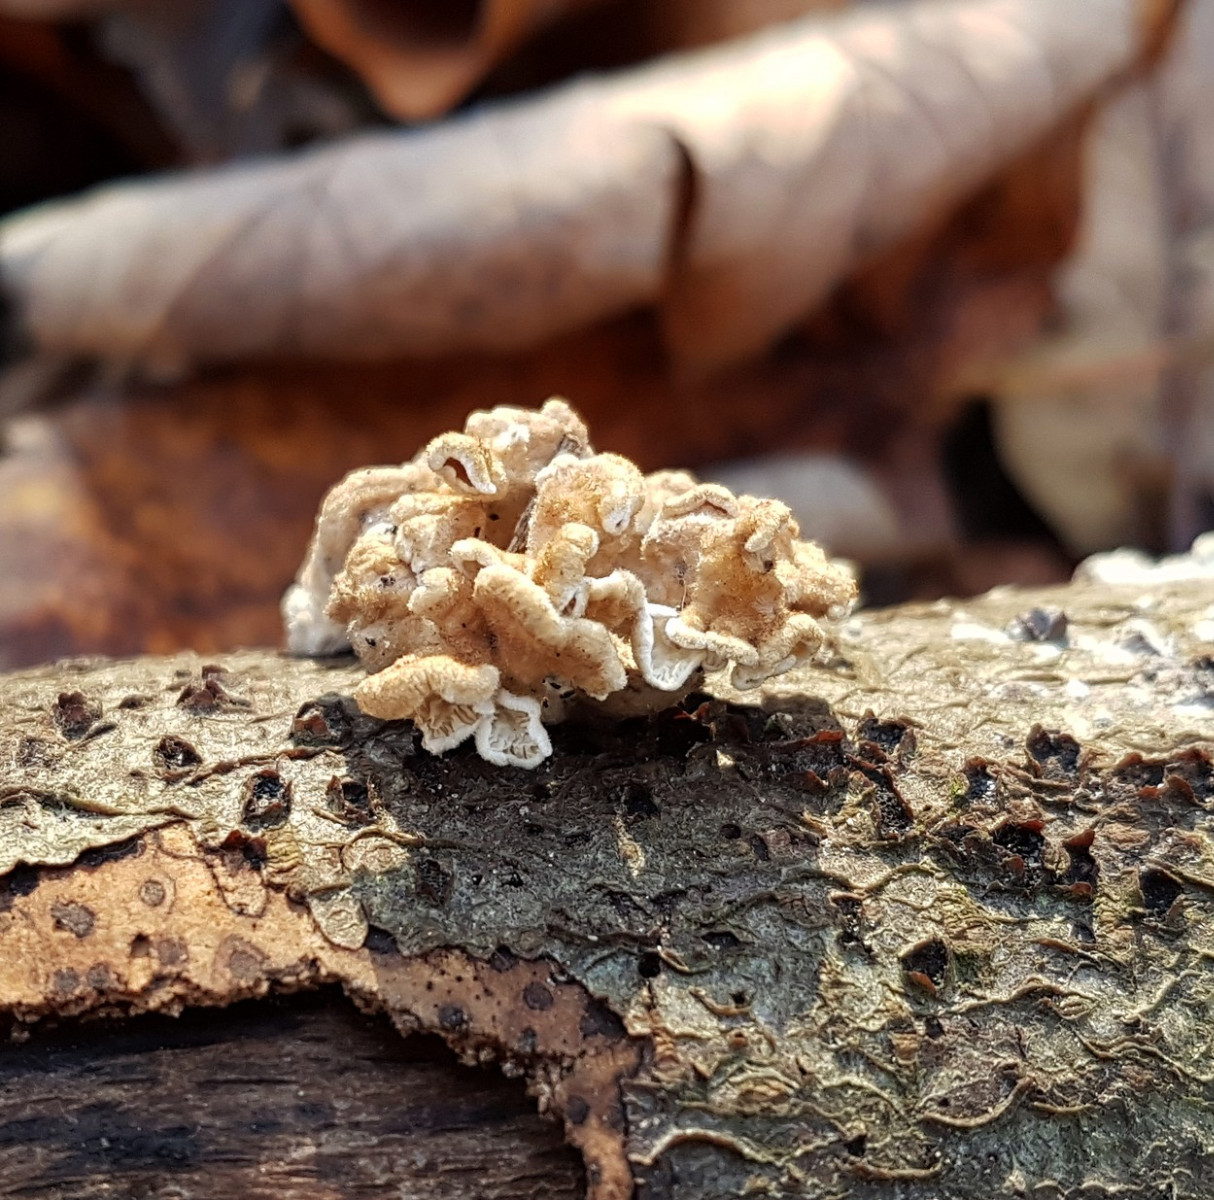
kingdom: Fungi
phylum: Basidiomycota
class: Agaricomycetes
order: Amylocorticiales
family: Amylocorticiaceae
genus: Plicaturopsis
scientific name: Plicaturopsis crispa
